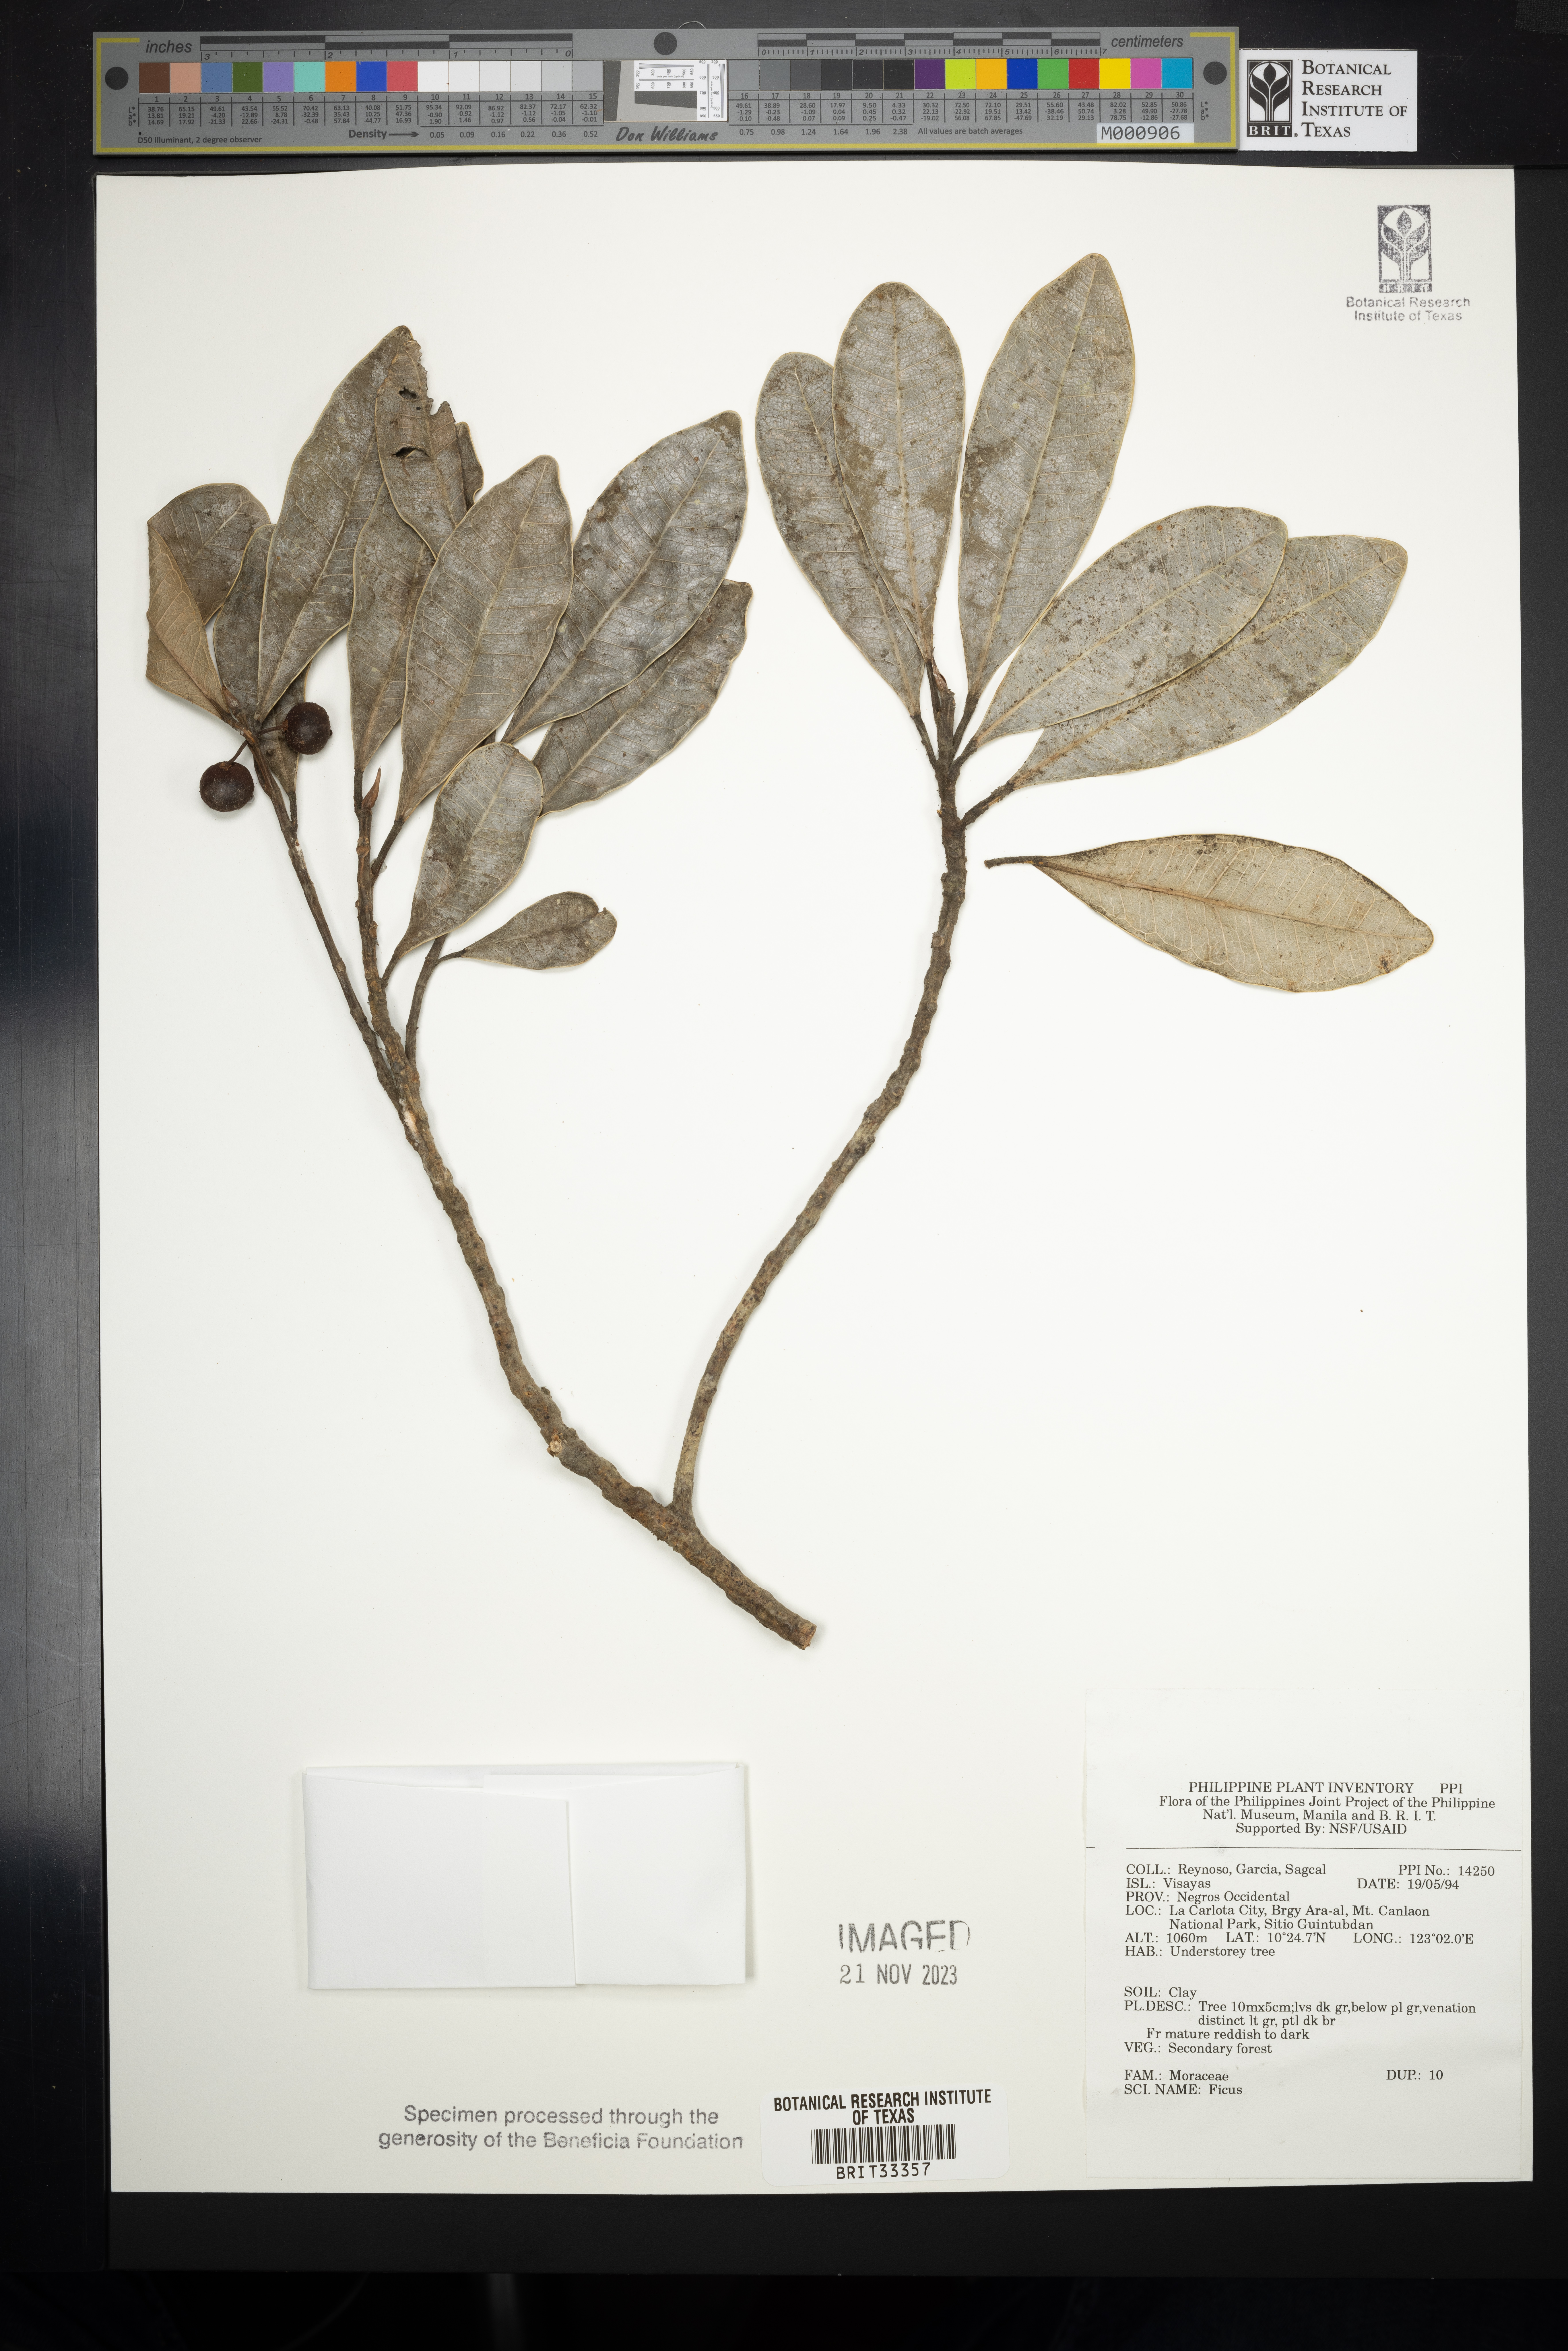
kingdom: Plantae
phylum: Tracheophyta
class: Magnoliopsida
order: Rosales
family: Moraceae
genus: Ficus
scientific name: Ficus
